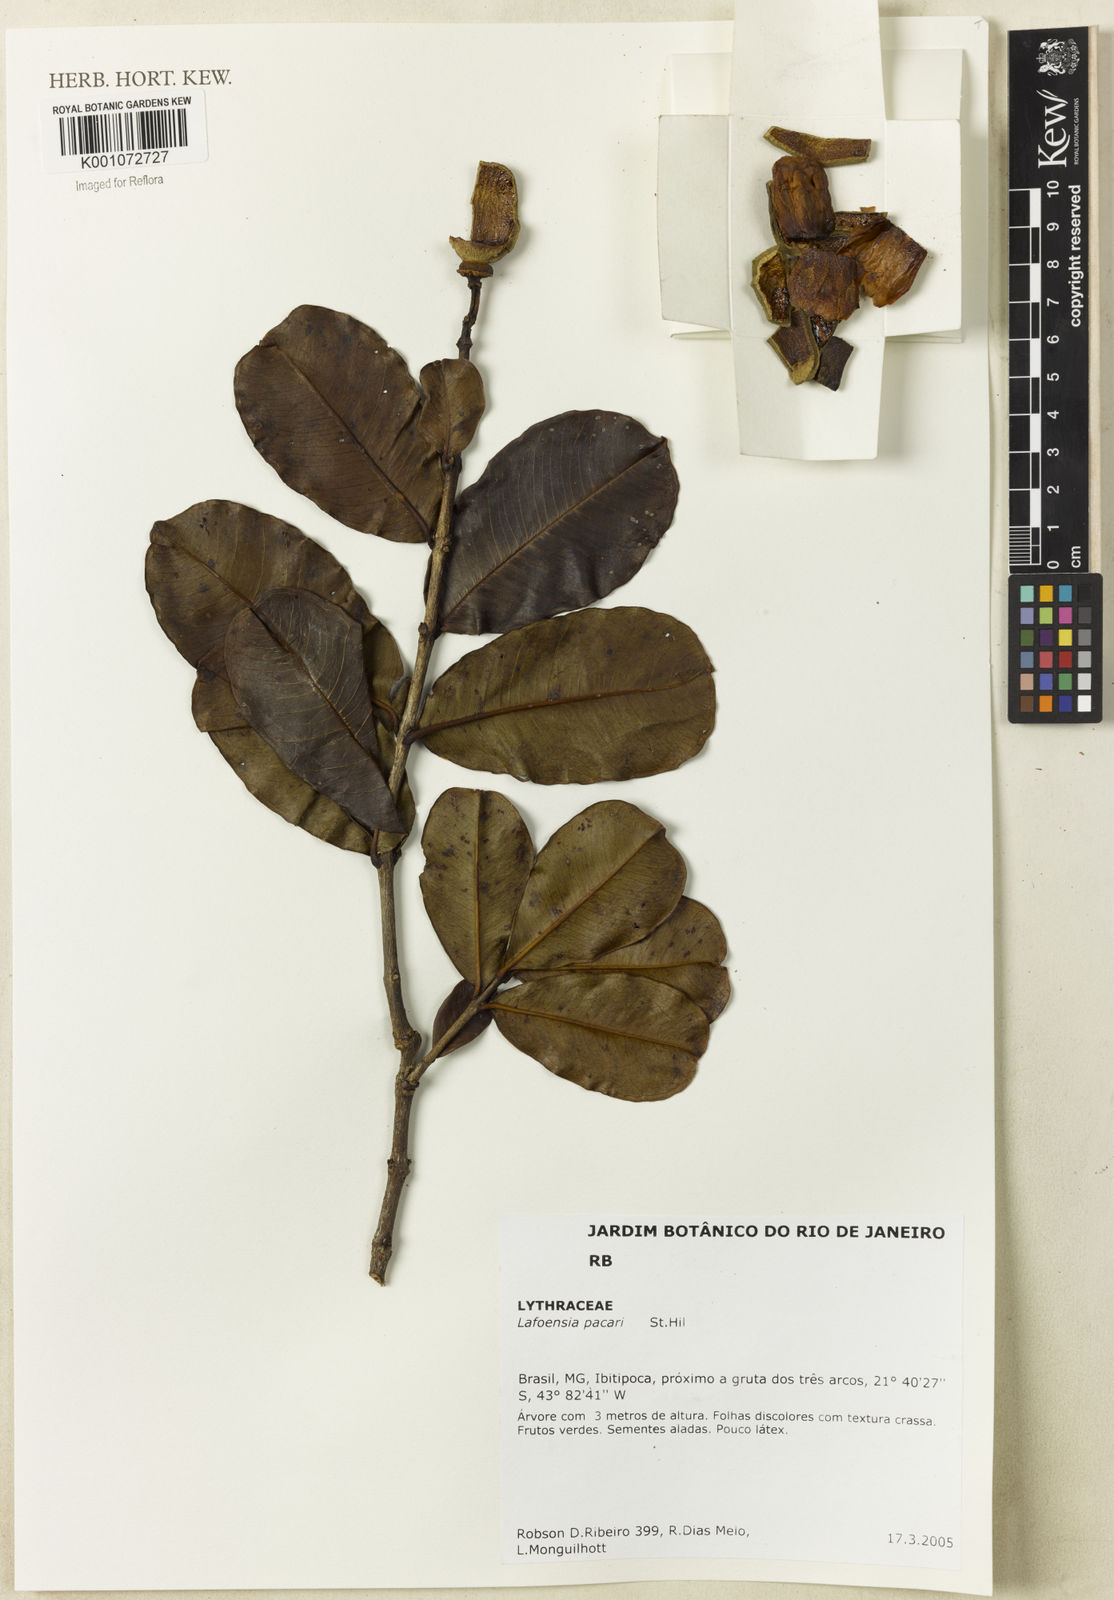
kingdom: Plantae
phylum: Tracheophyta
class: Magnoliopsida
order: Myrtales
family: Lythraceae
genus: Lafoensia
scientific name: Lafoensia pacari
